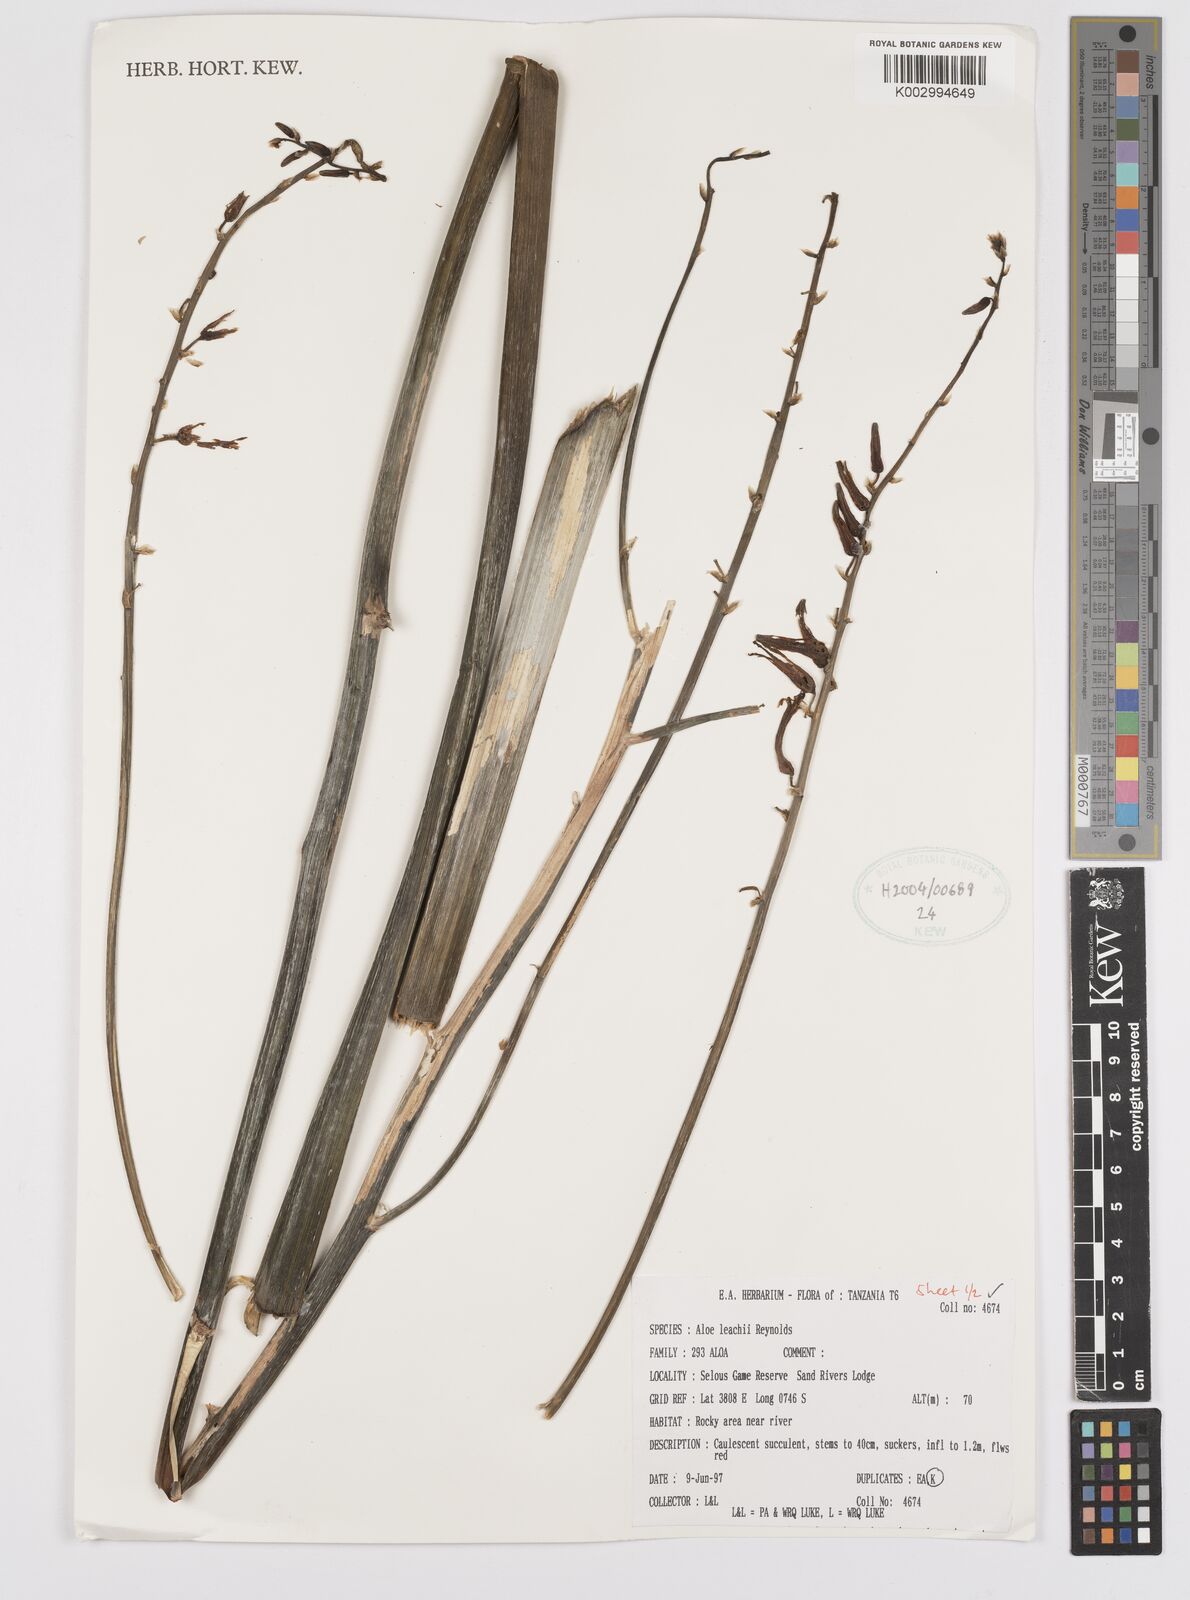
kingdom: Plantae
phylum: Tracheophyta
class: Liliopsida
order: Asparagales
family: Asphodelaceae
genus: Aloe
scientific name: Aloe leachii
